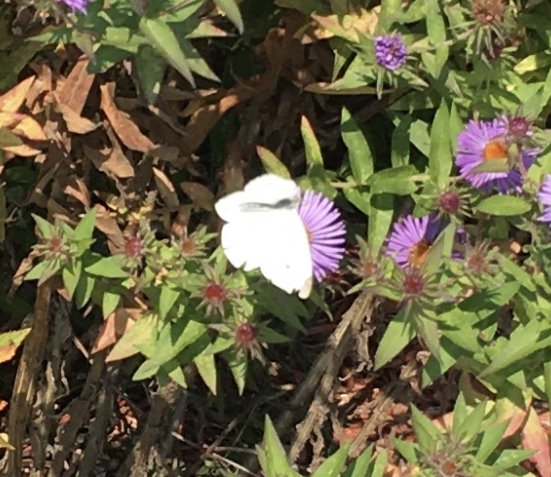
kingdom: Animalia
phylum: Arthropoda
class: Insecta
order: Lepidoptera
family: Pieridae
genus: Pieris
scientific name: Pieris rapae
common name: Cabbage White
